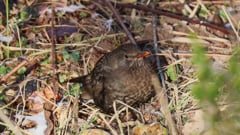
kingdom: Animalia
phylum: Chordata
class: Aves
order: Passeriformes
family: Turdidae
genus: Turdus
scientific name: Turdus merula
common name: Common blackbird
